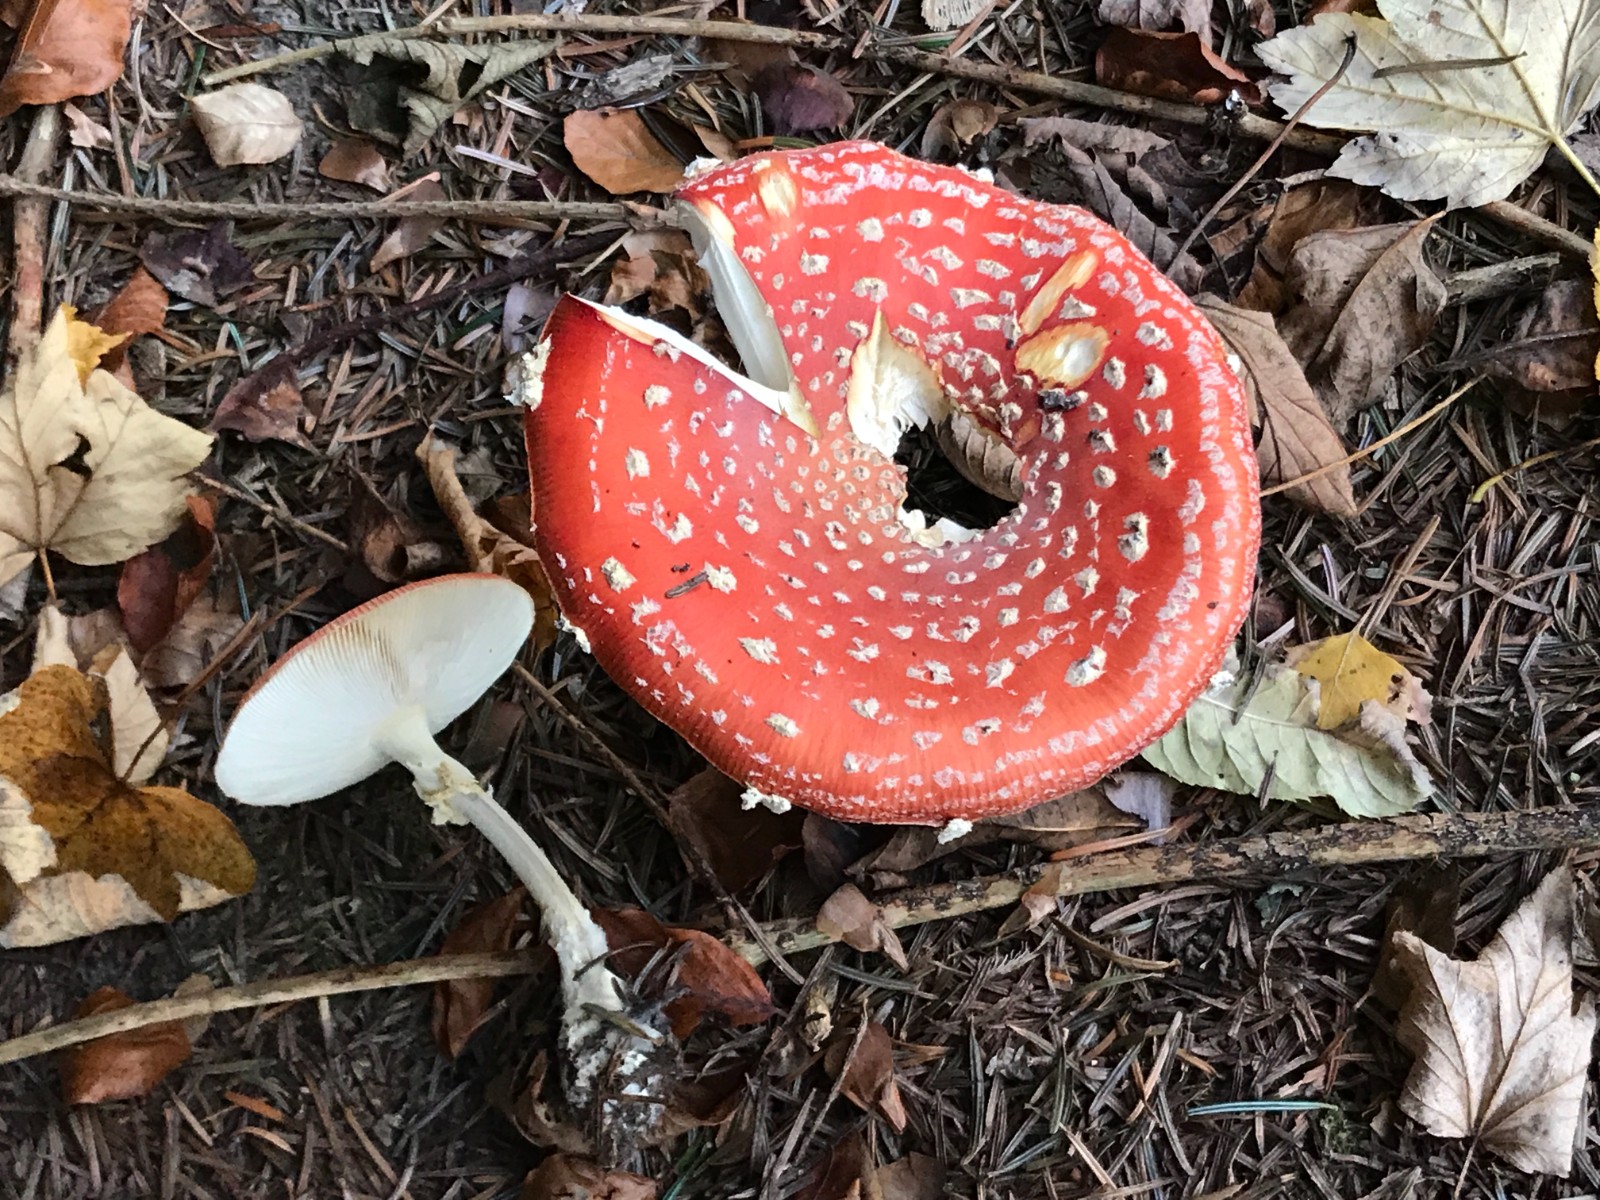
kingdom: Fungi
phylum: Basidiomycota
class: Agaricomycetes
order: Agaricales
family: Amanitaceae
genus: Amanita
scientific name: Amanita muscaria
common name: rød fluesvamp
